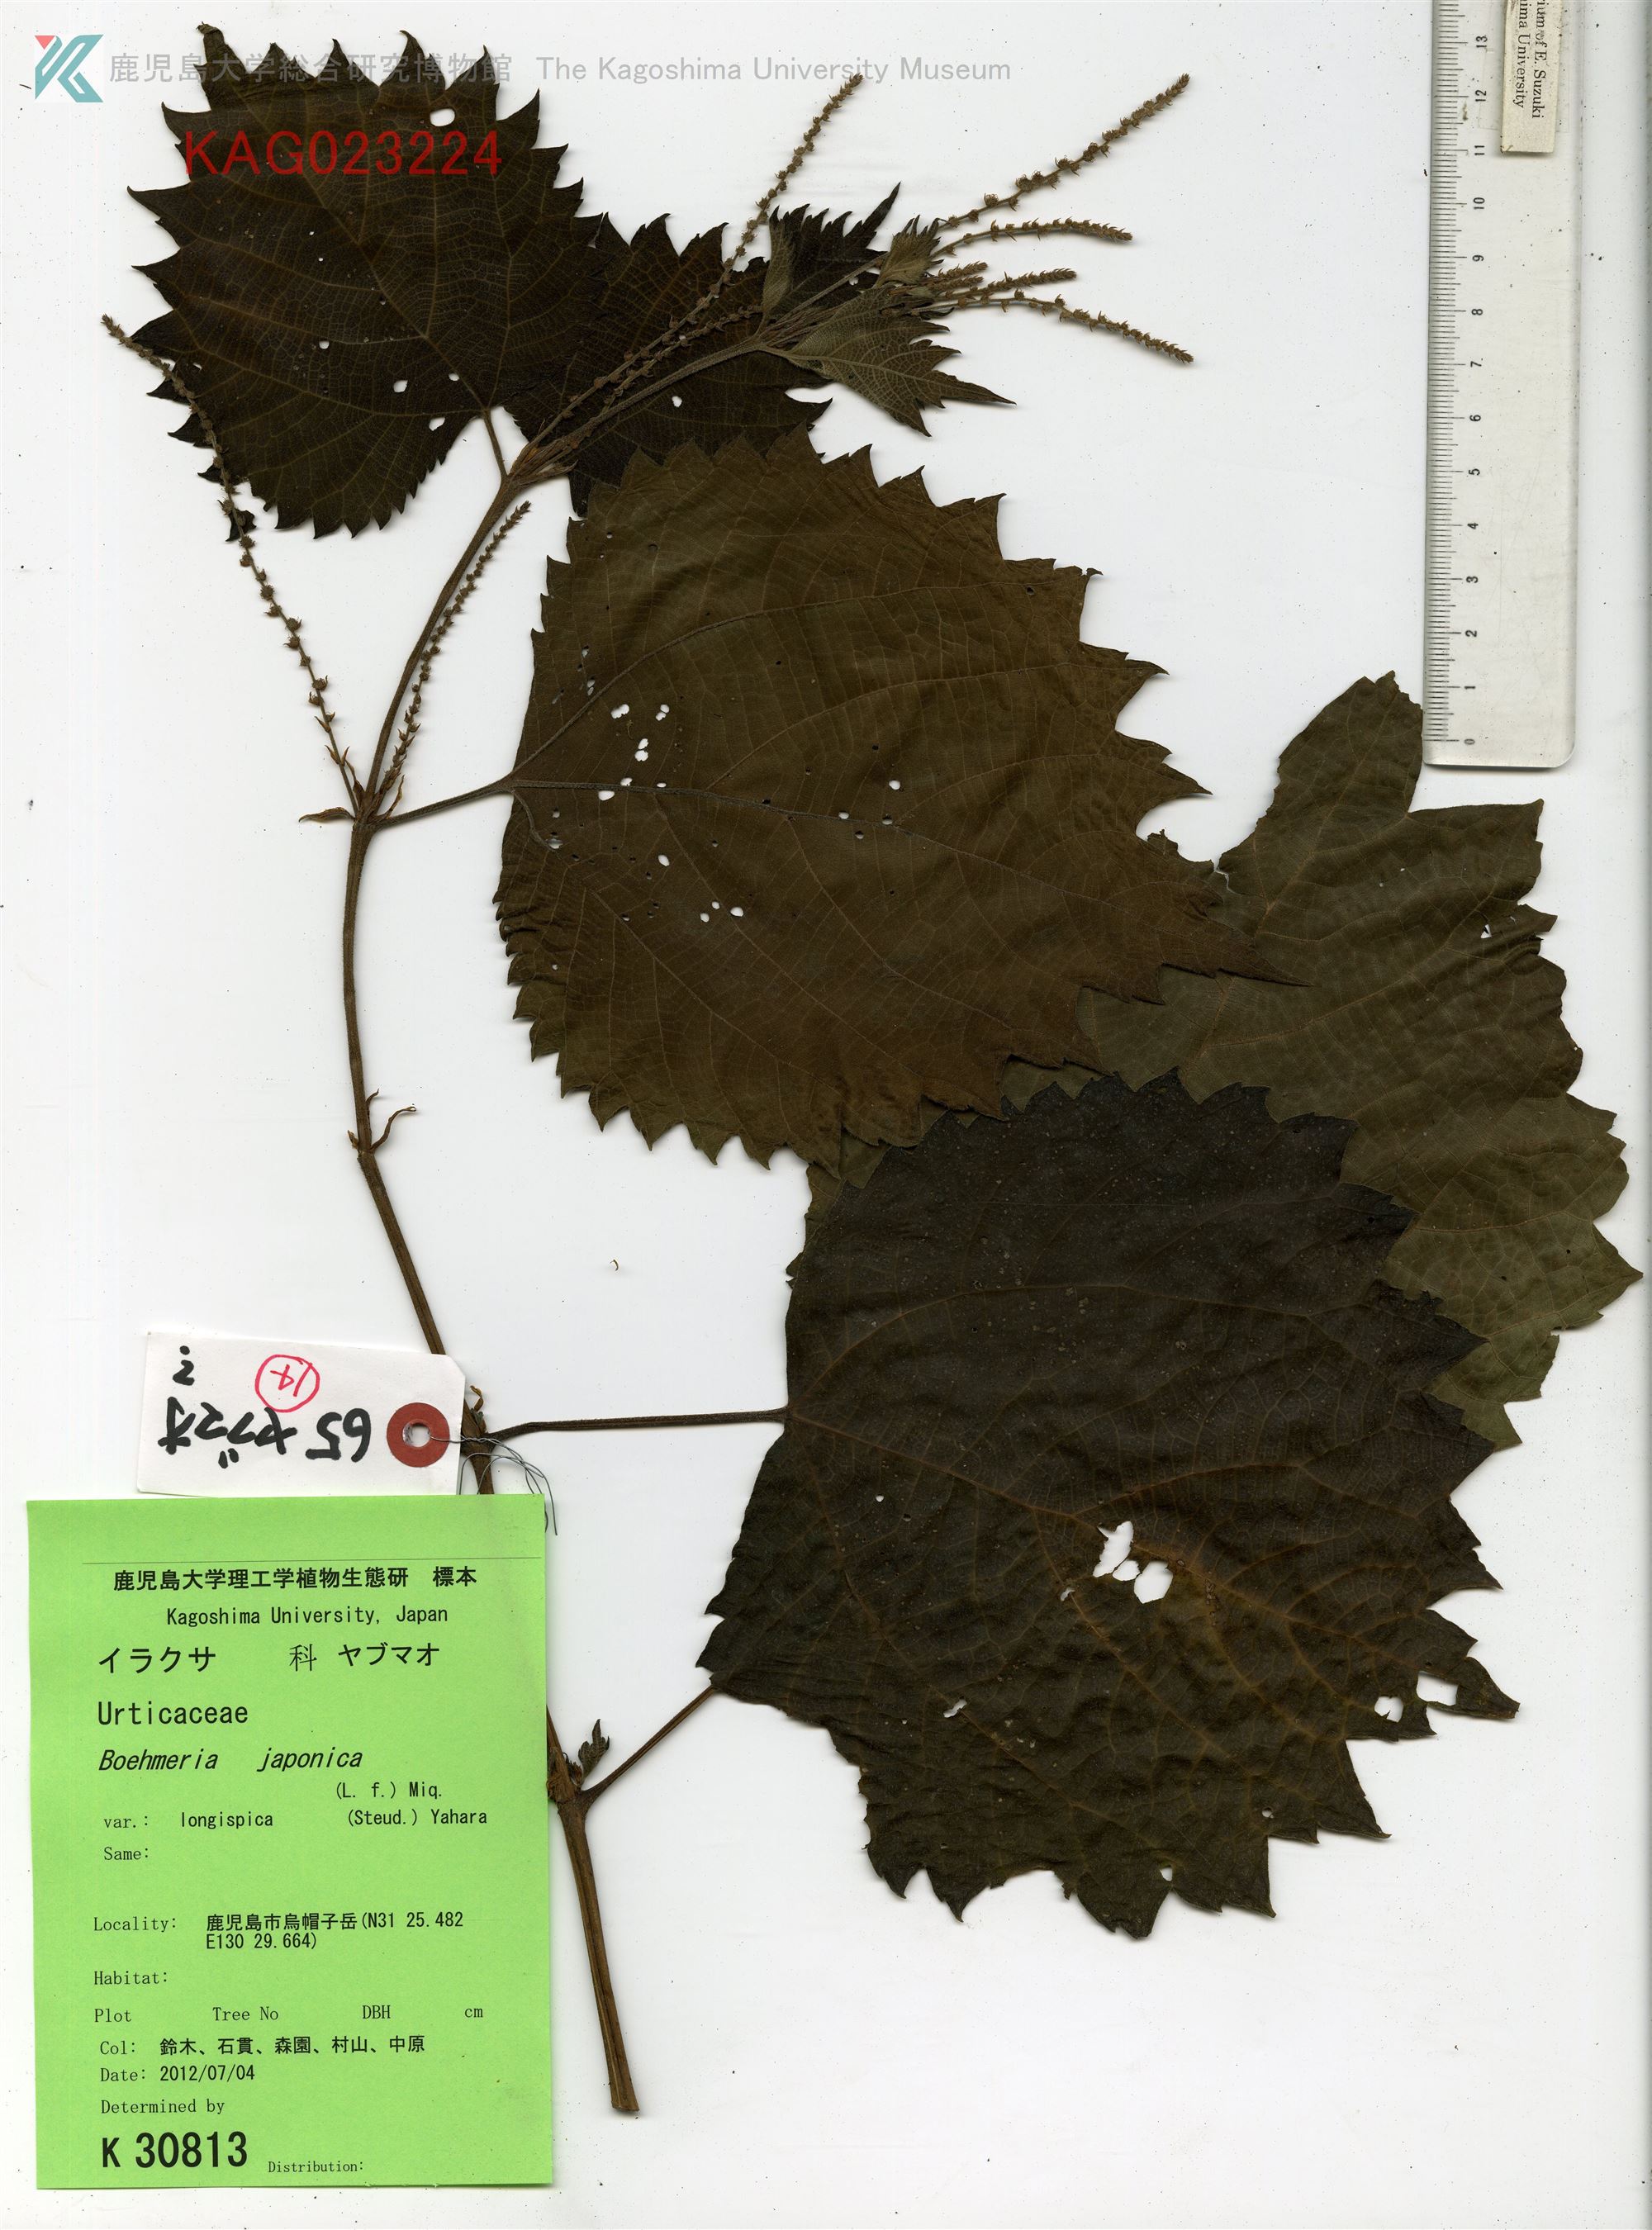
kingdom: Plantae
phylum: Tracheophyta
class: Magnoliopsida
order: Rosales
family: Urticaceae
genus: Boehmeria
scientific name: Boehmeria japonica
